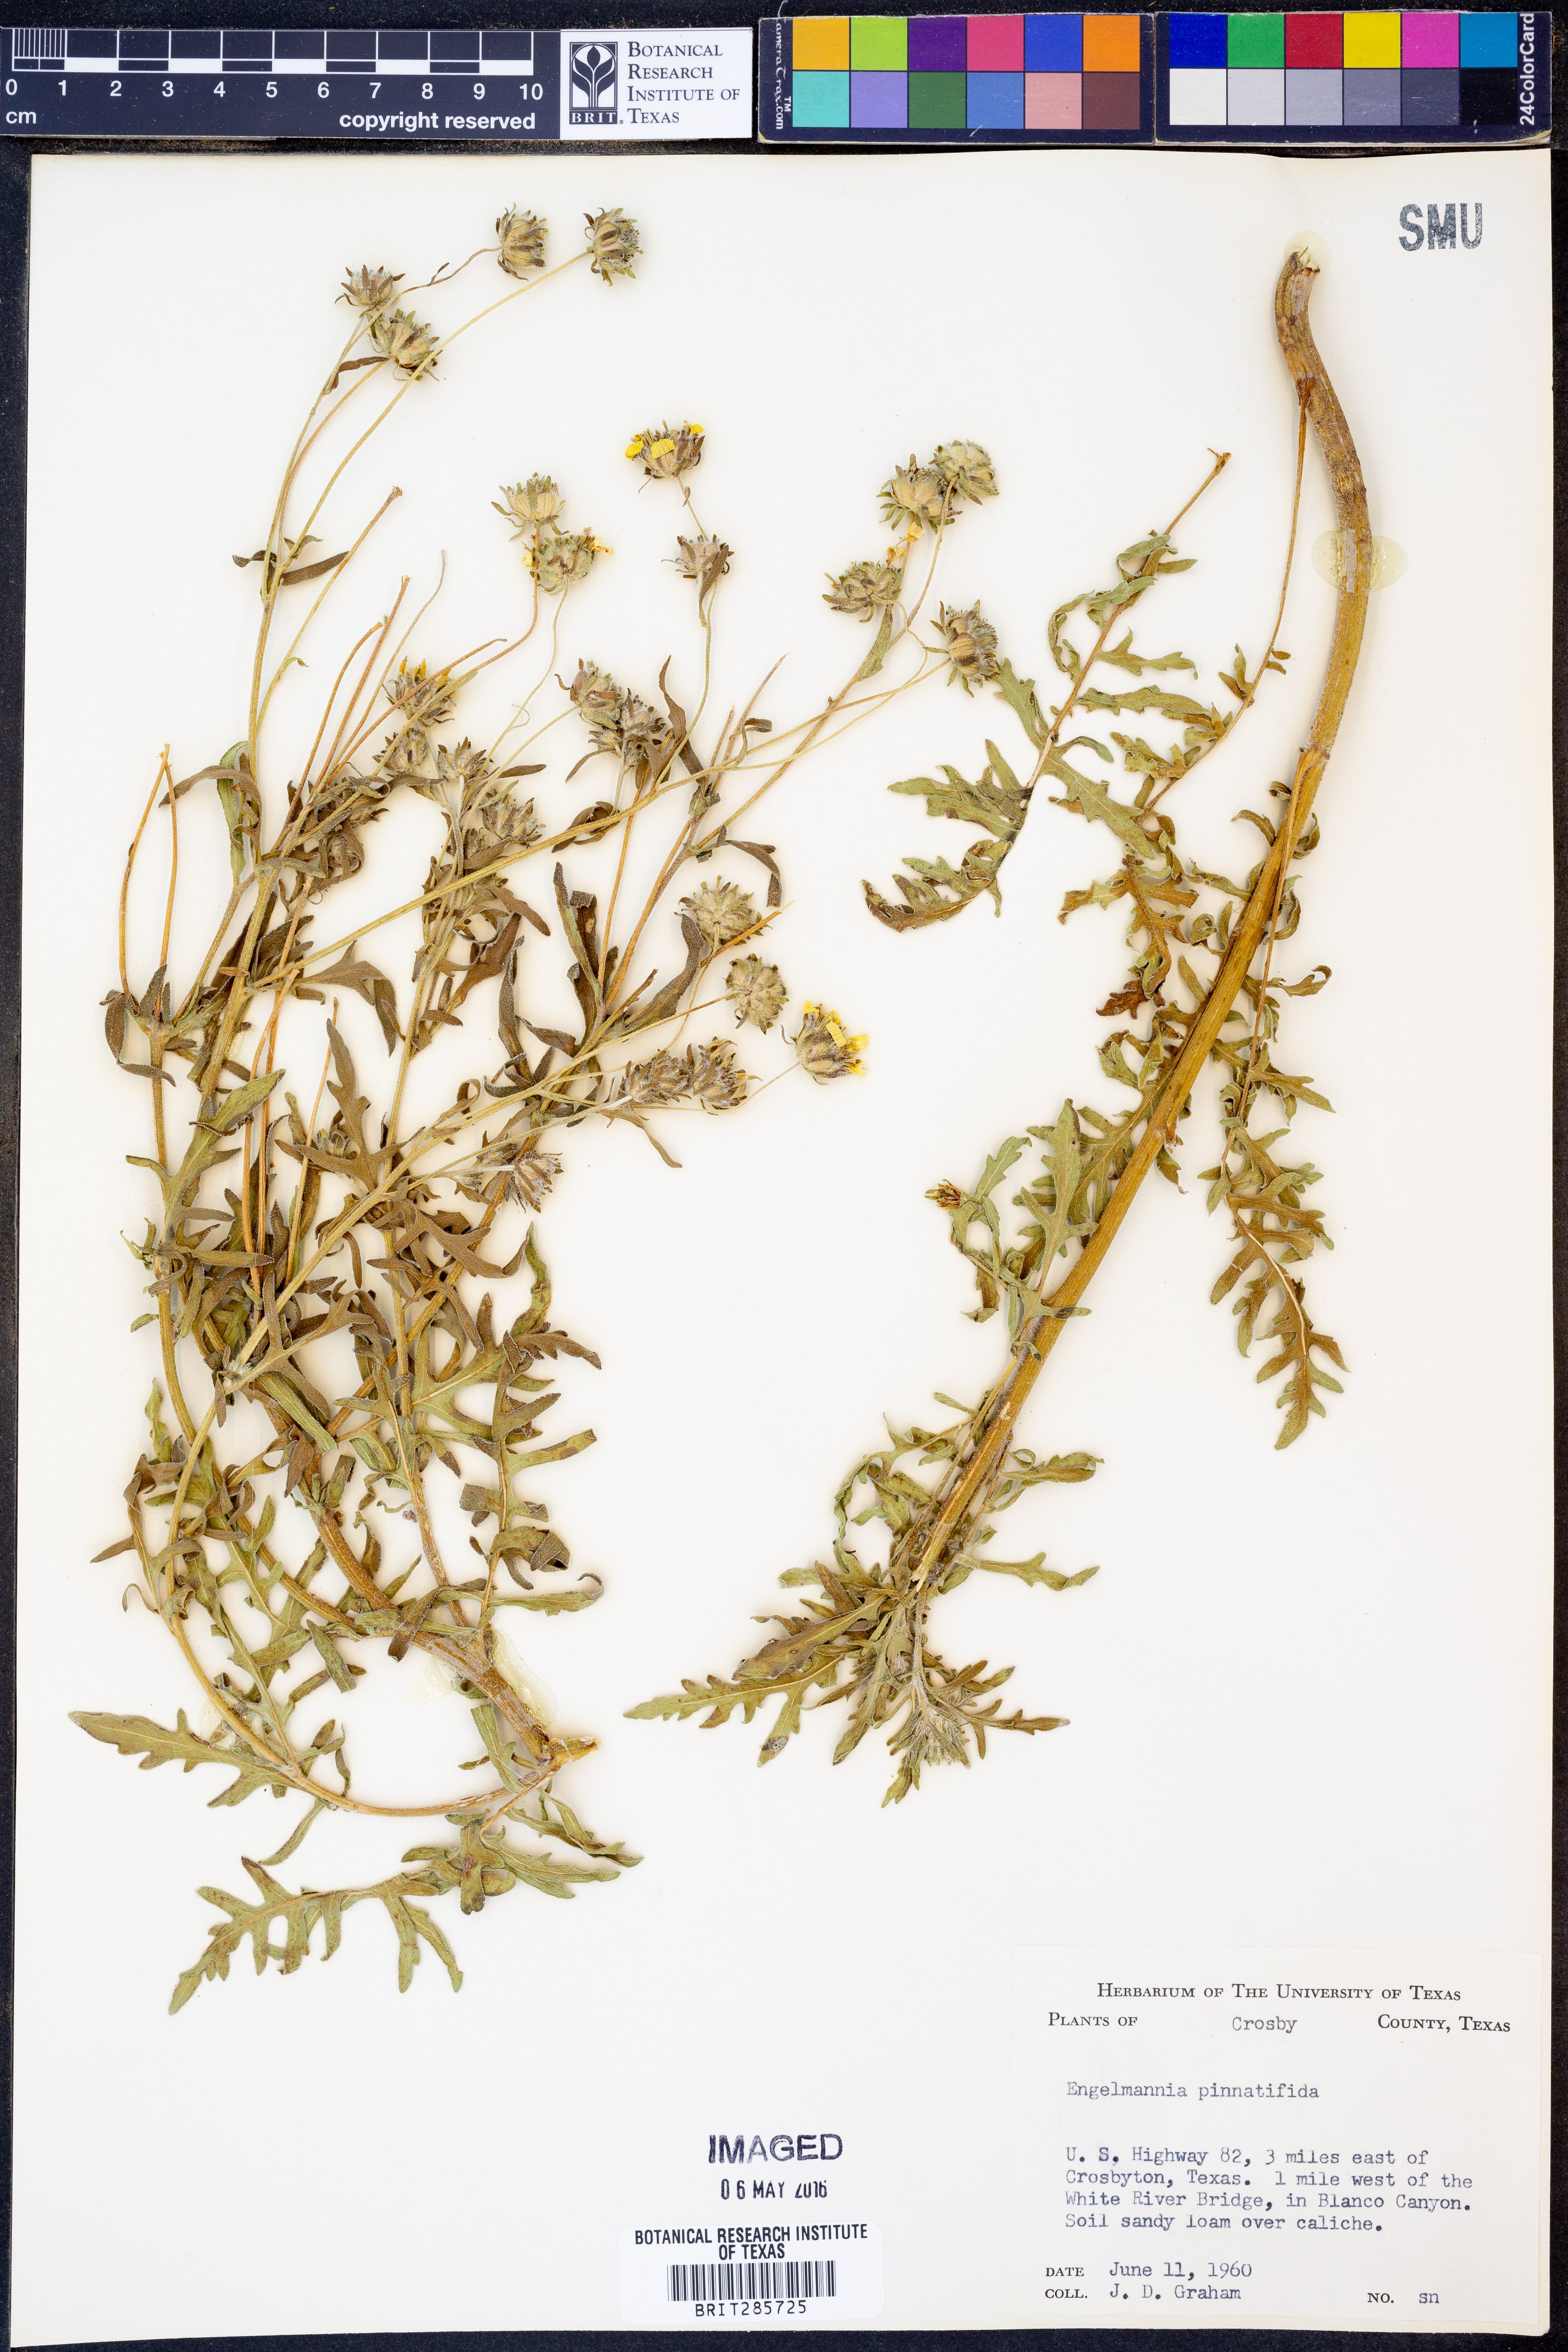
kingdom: Plantae
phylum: Tracheophyta
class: Magnoliopsida
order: Asterales
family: Asteraceae
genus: Engelmannia
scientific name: Engelmannia peristenia
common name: Engelmann's daisy
